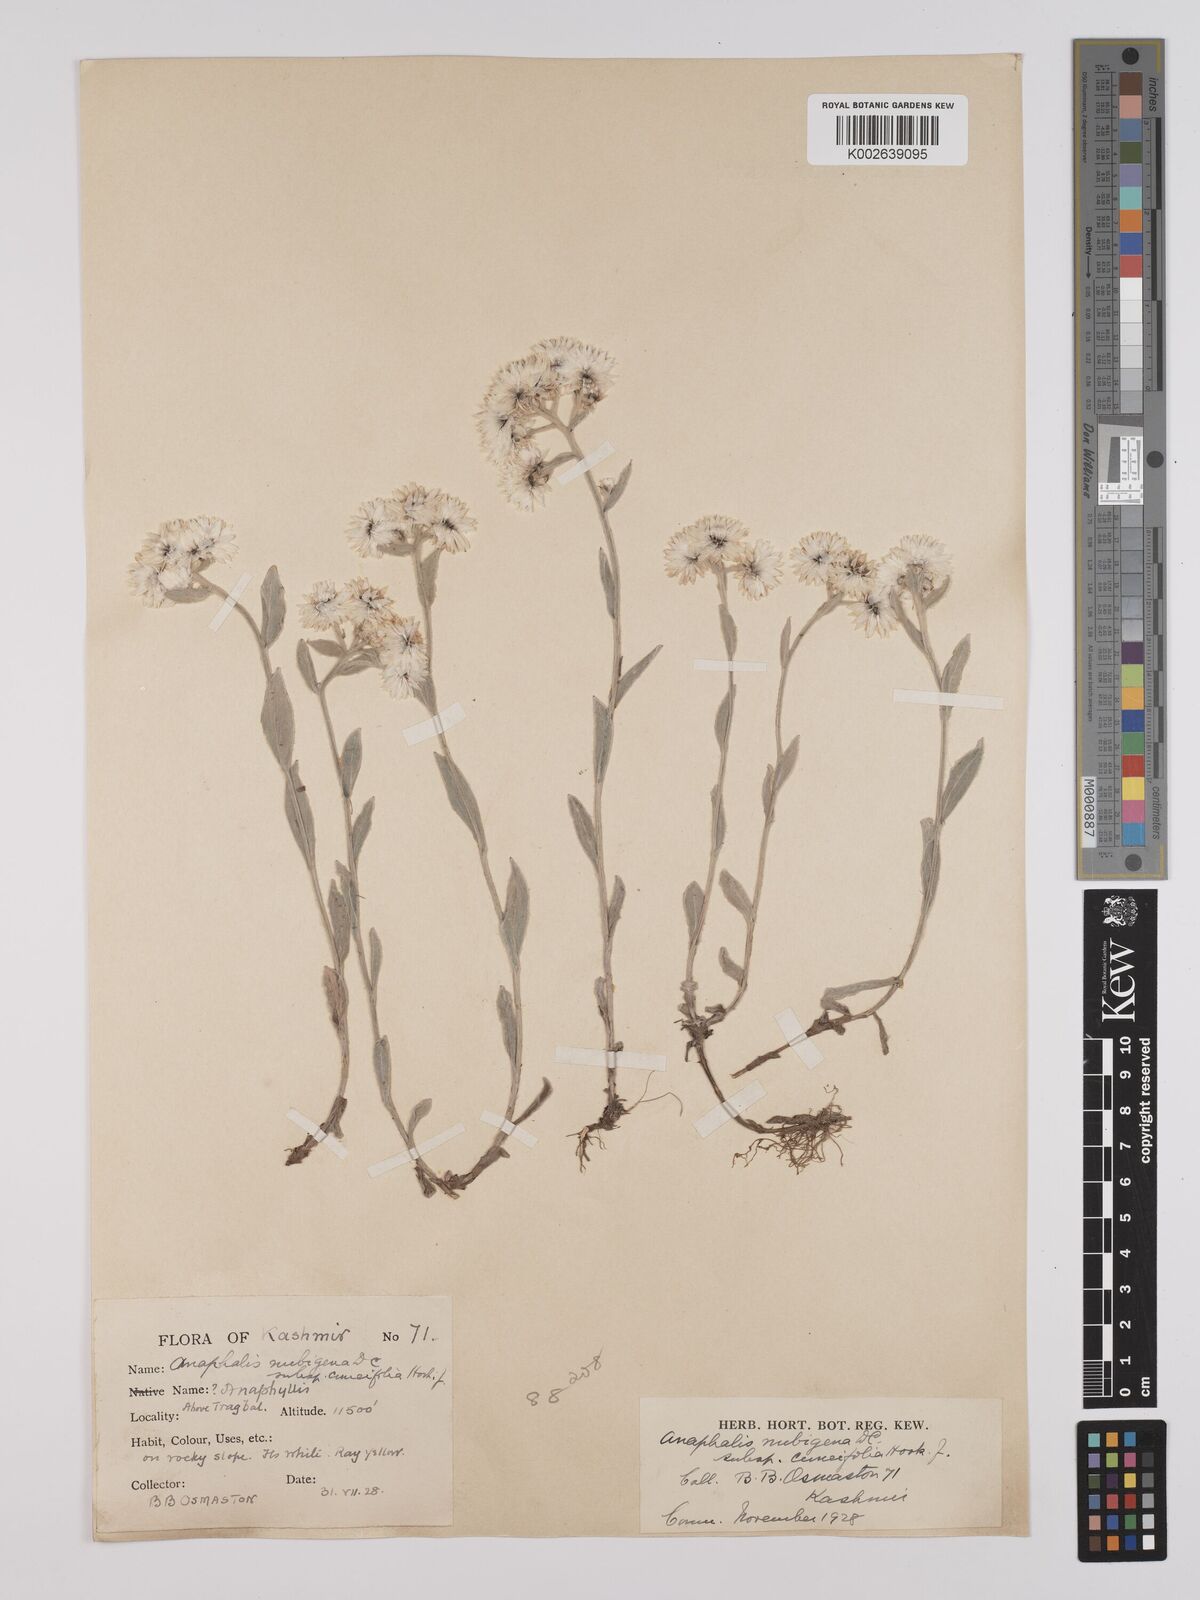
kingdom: Plantae
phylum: Tracheophyta
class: Magnoliopsida
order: Asterales
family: Asteraceae
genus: Anaphalioides
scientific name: Anaphalioides trinervis
